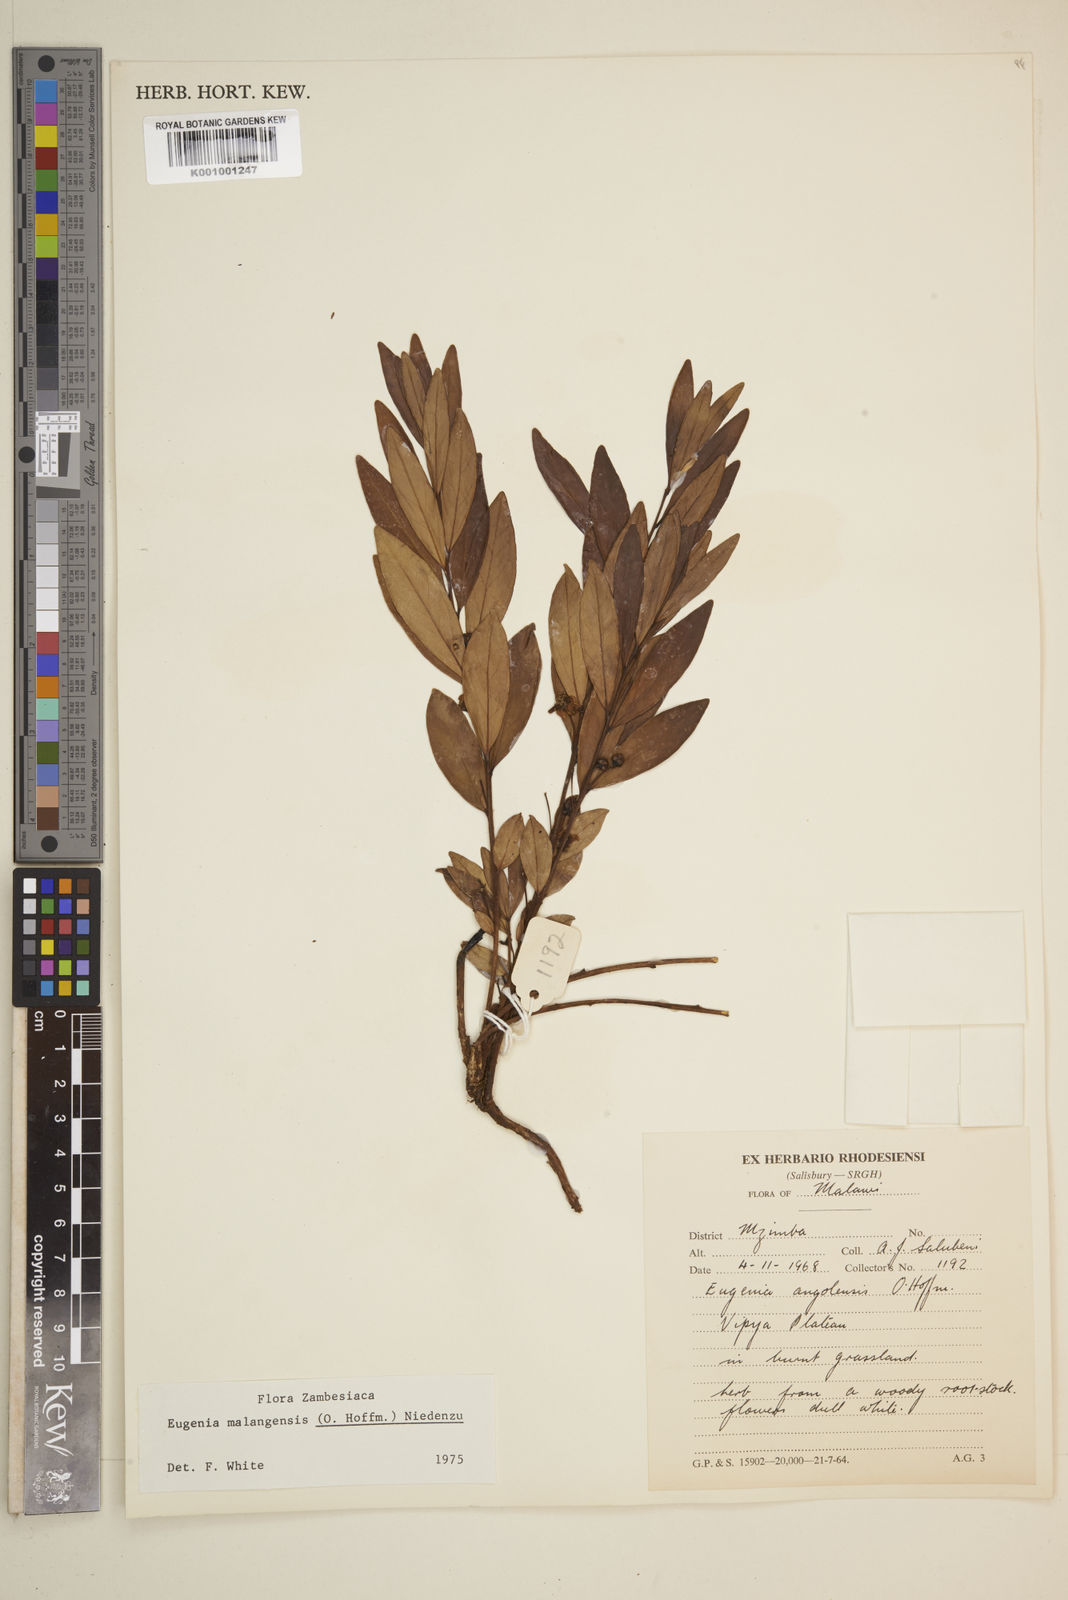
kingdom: Plantae
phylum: Tracheophyta
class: Magnoliopsida
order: Myrtales
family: Myrtaceae
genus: Eugenia
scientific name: Eugenia malangensis
